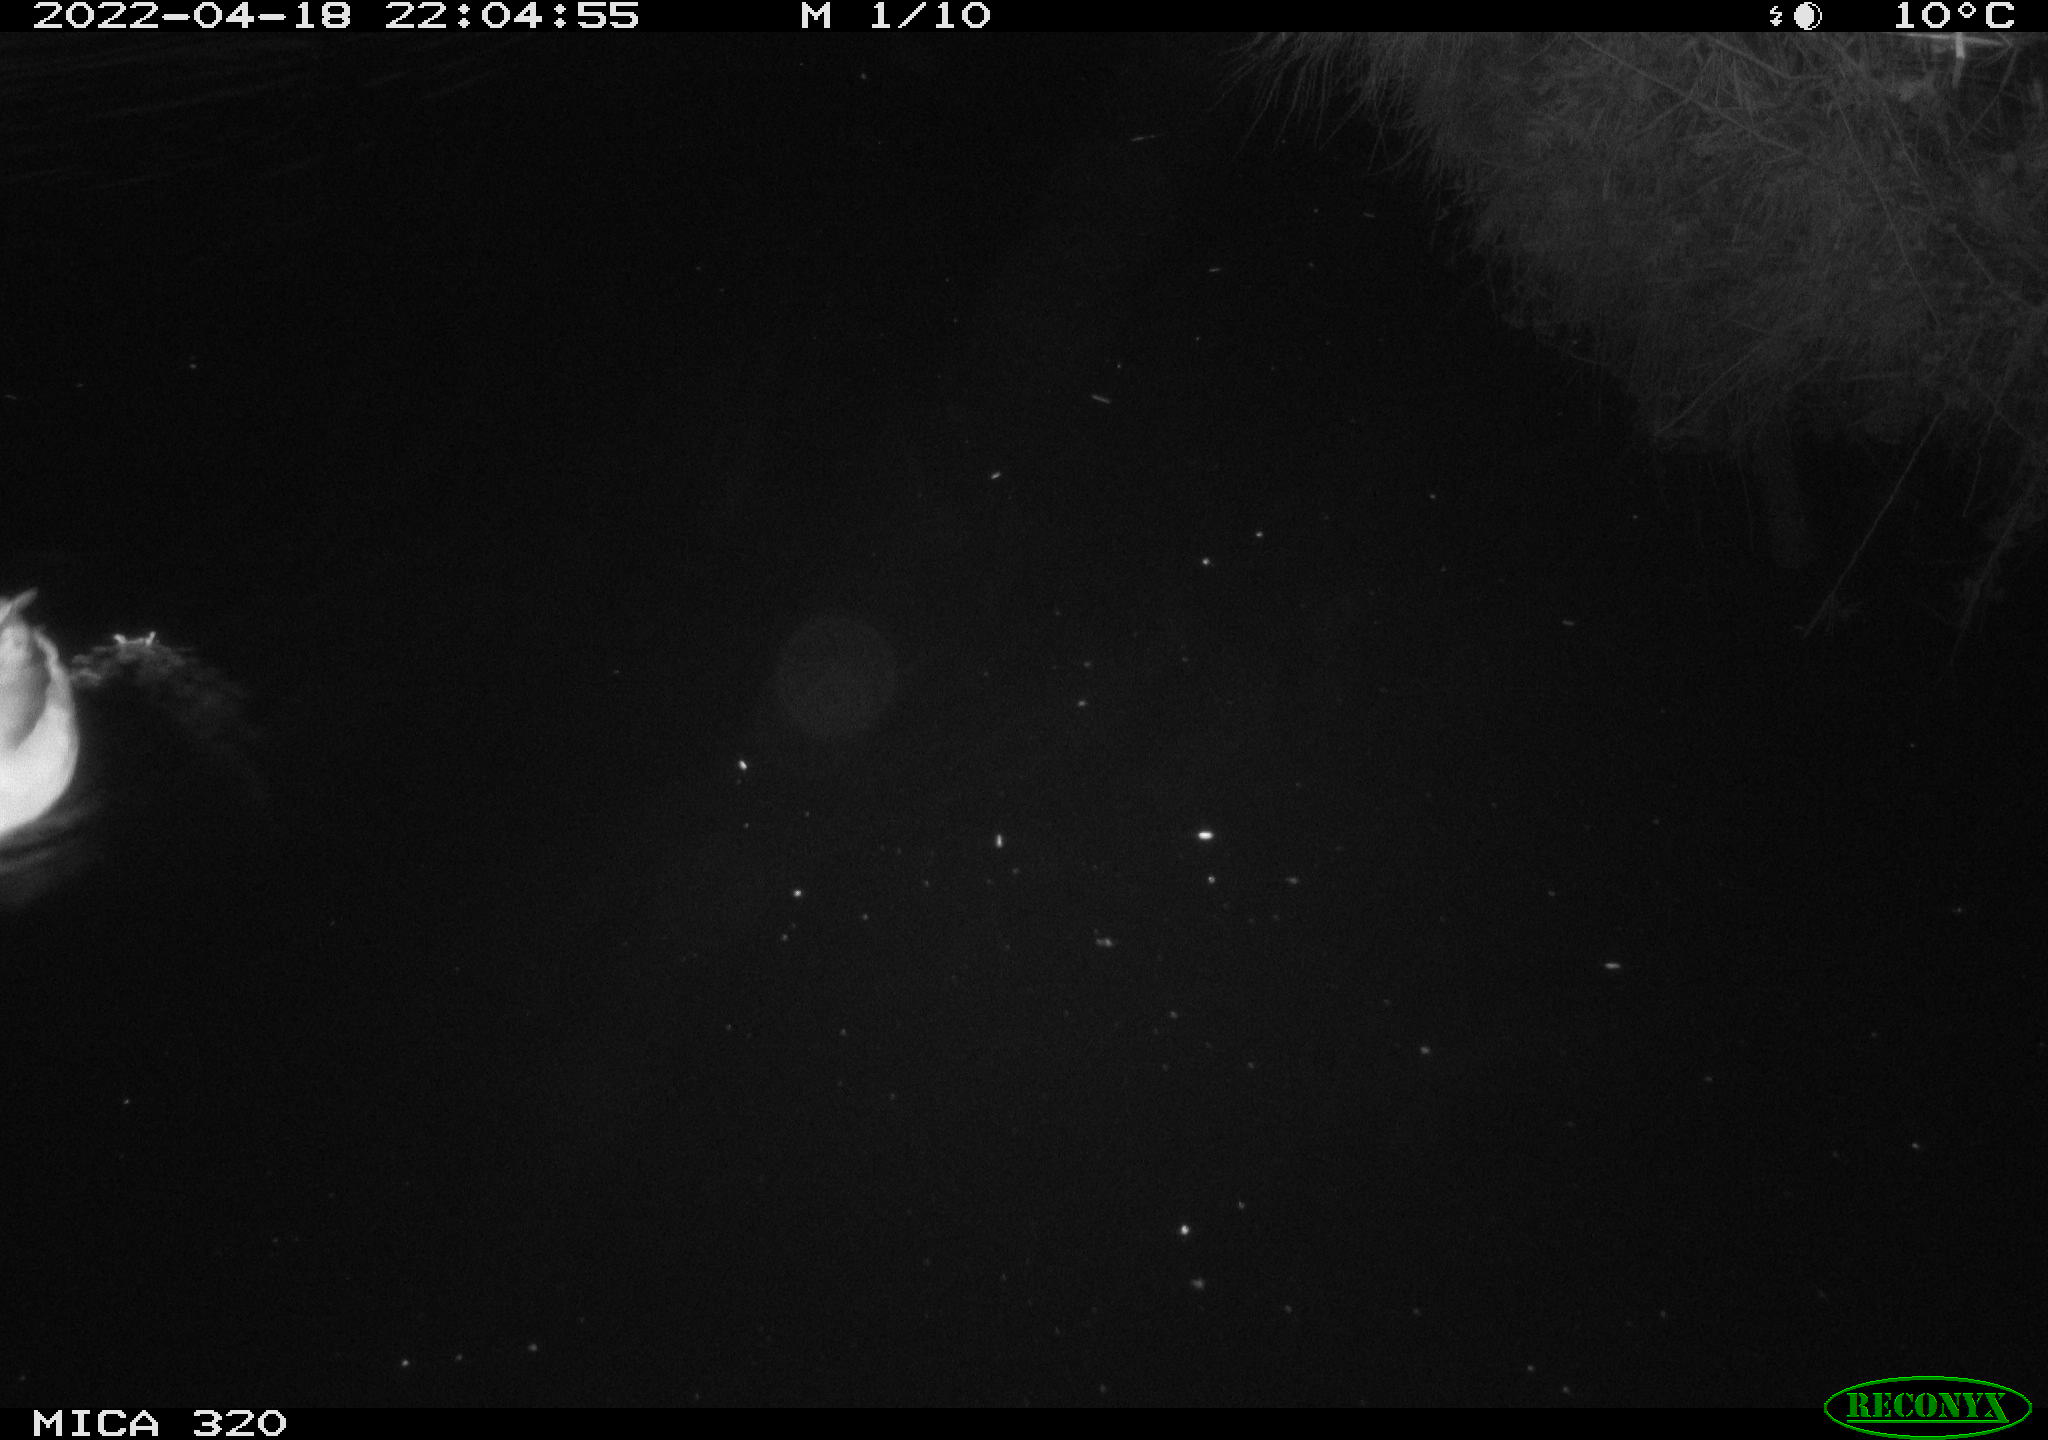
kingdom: Animalia
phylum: Chordata
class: Aves
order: Anseriformes
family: Anatidae
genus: Anas
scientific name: Anas platyrhynchos
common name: Mallard
